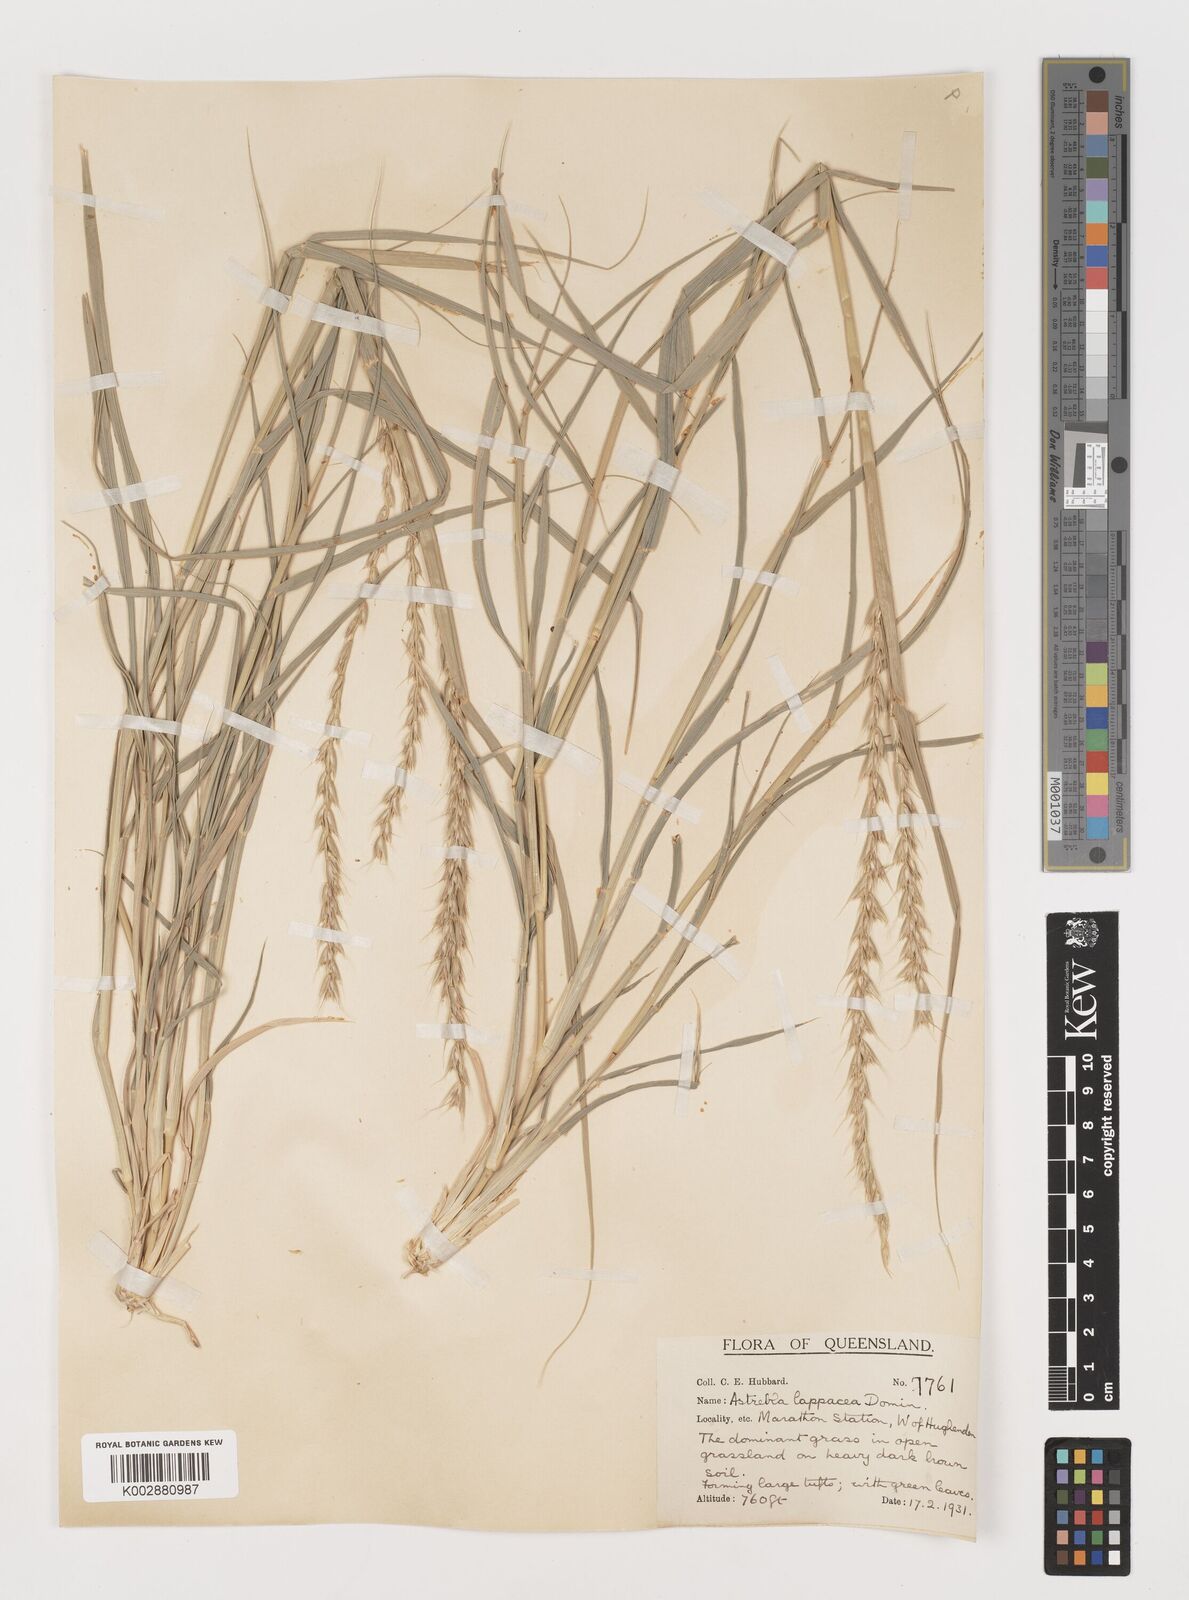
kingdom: Plantae
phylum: Tracheophyta
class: Liliopsida
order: Poales
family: Poaceae
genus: Astrebla
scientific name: Astrebla lappacea
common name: Curly mitchell grass
